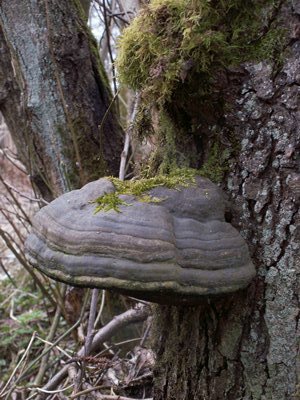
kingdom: Fungi
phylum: Basidiomycota
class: Agaricomycetes
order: Polyporales
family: Polyporaceae
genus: Fomes
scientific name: Fomes fomentarius
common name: tøndersvamp
